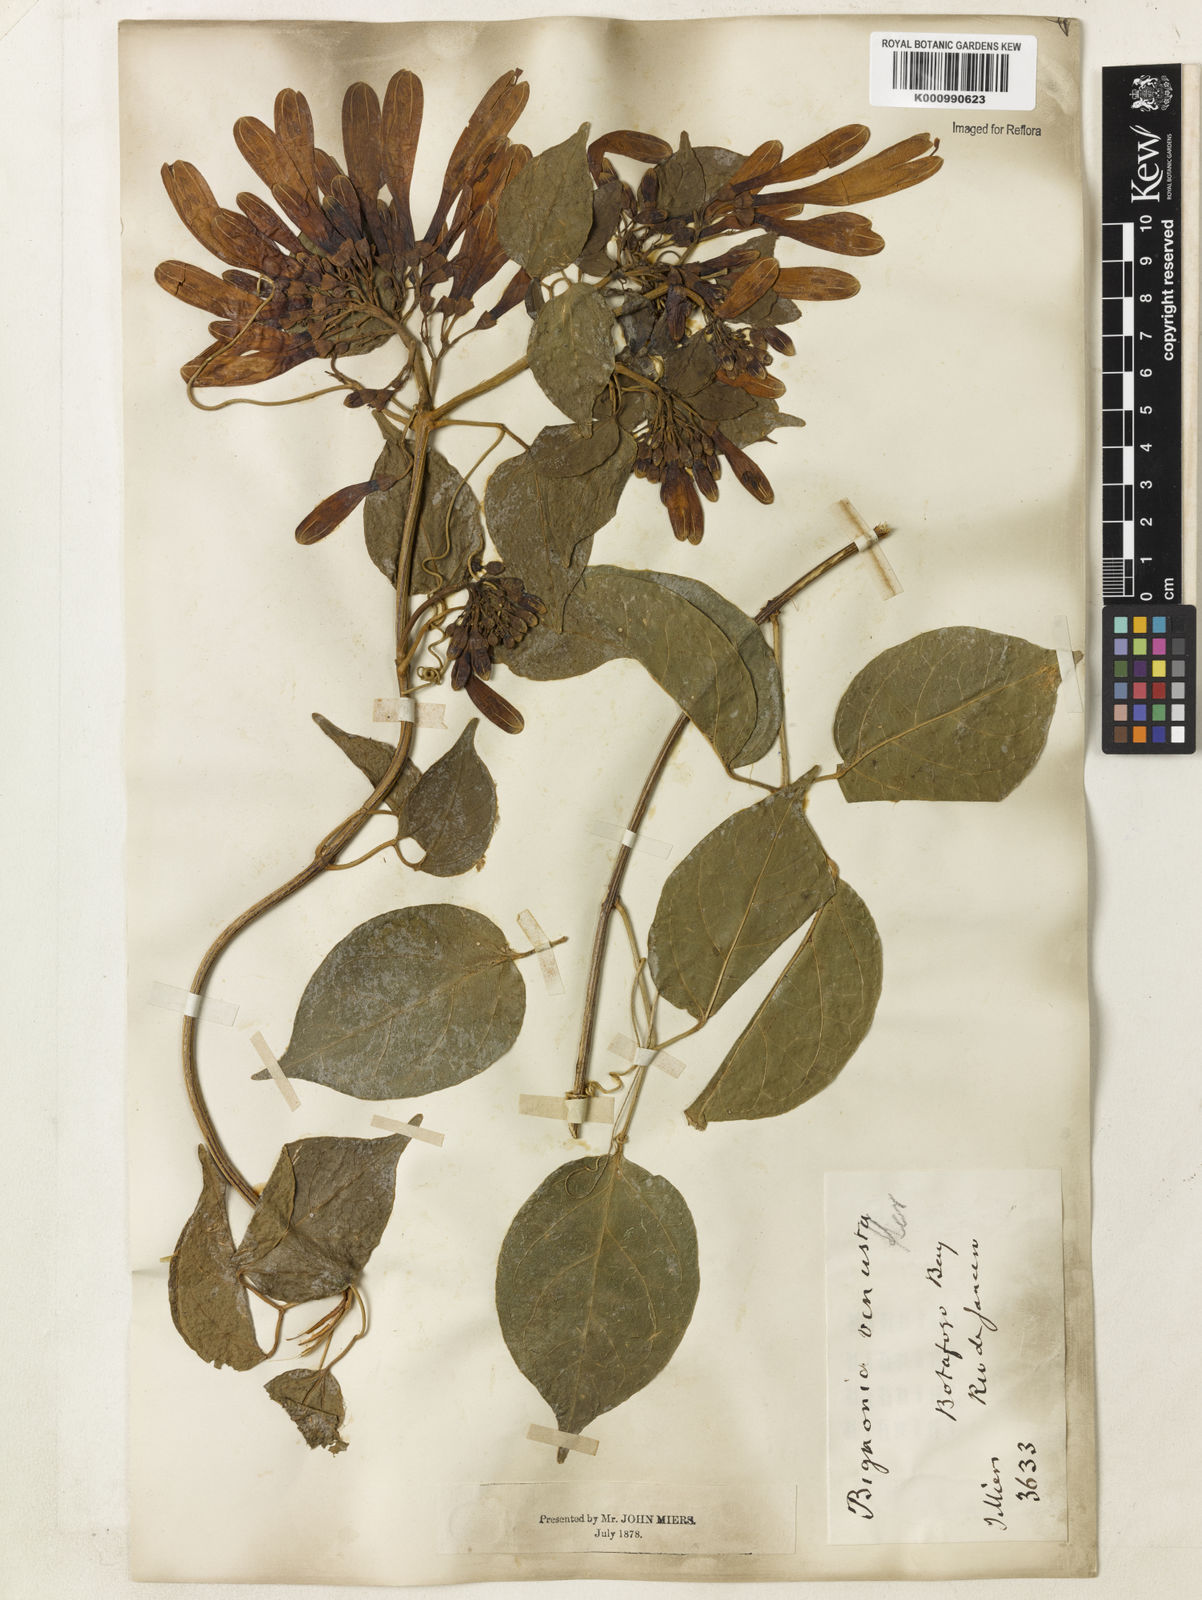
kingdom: Plantae
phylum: Tracheophyta
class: Magnoliopsida
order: Lamiales
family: Bignoniaceae
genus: Pyrostegia
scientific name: Pyrostegia venusta
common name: Flamevine
